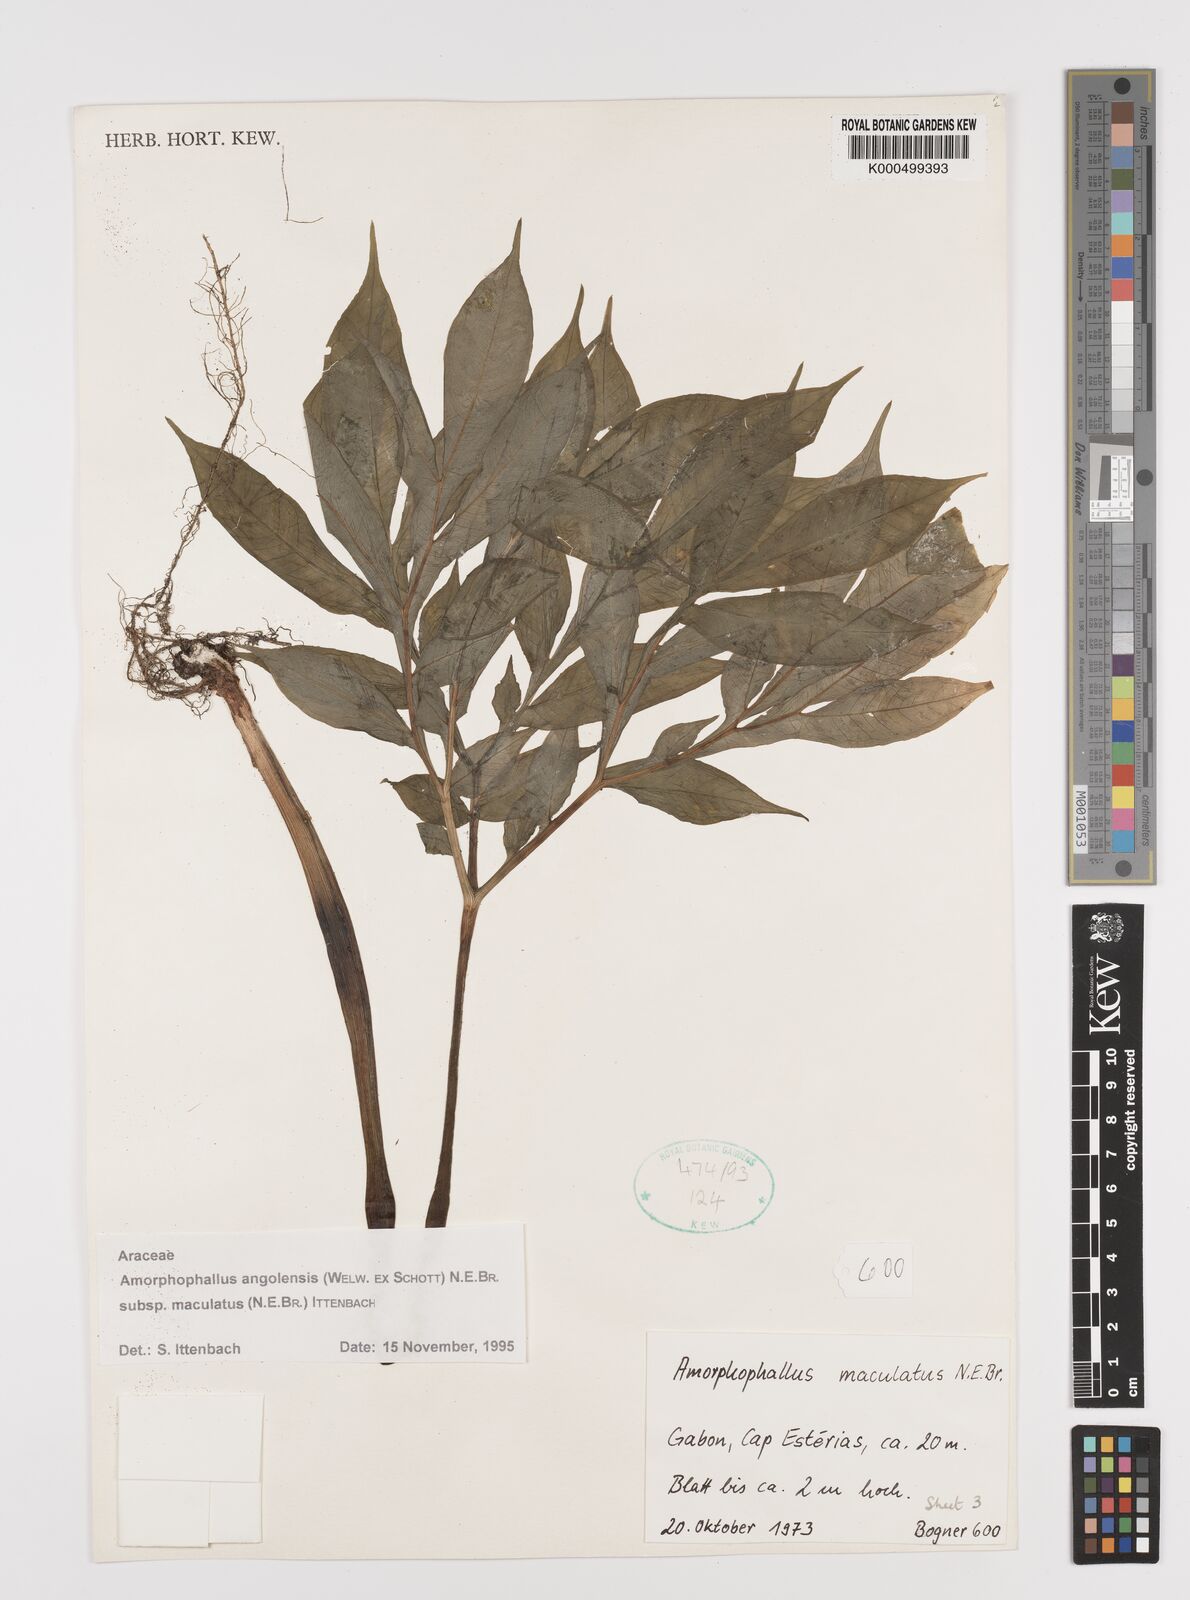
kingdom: Plantae
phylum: Tracheophyta
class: Liliopsida
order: Alismatales
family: Araceae
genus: Amorphophallus
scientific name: Amorphophallus
